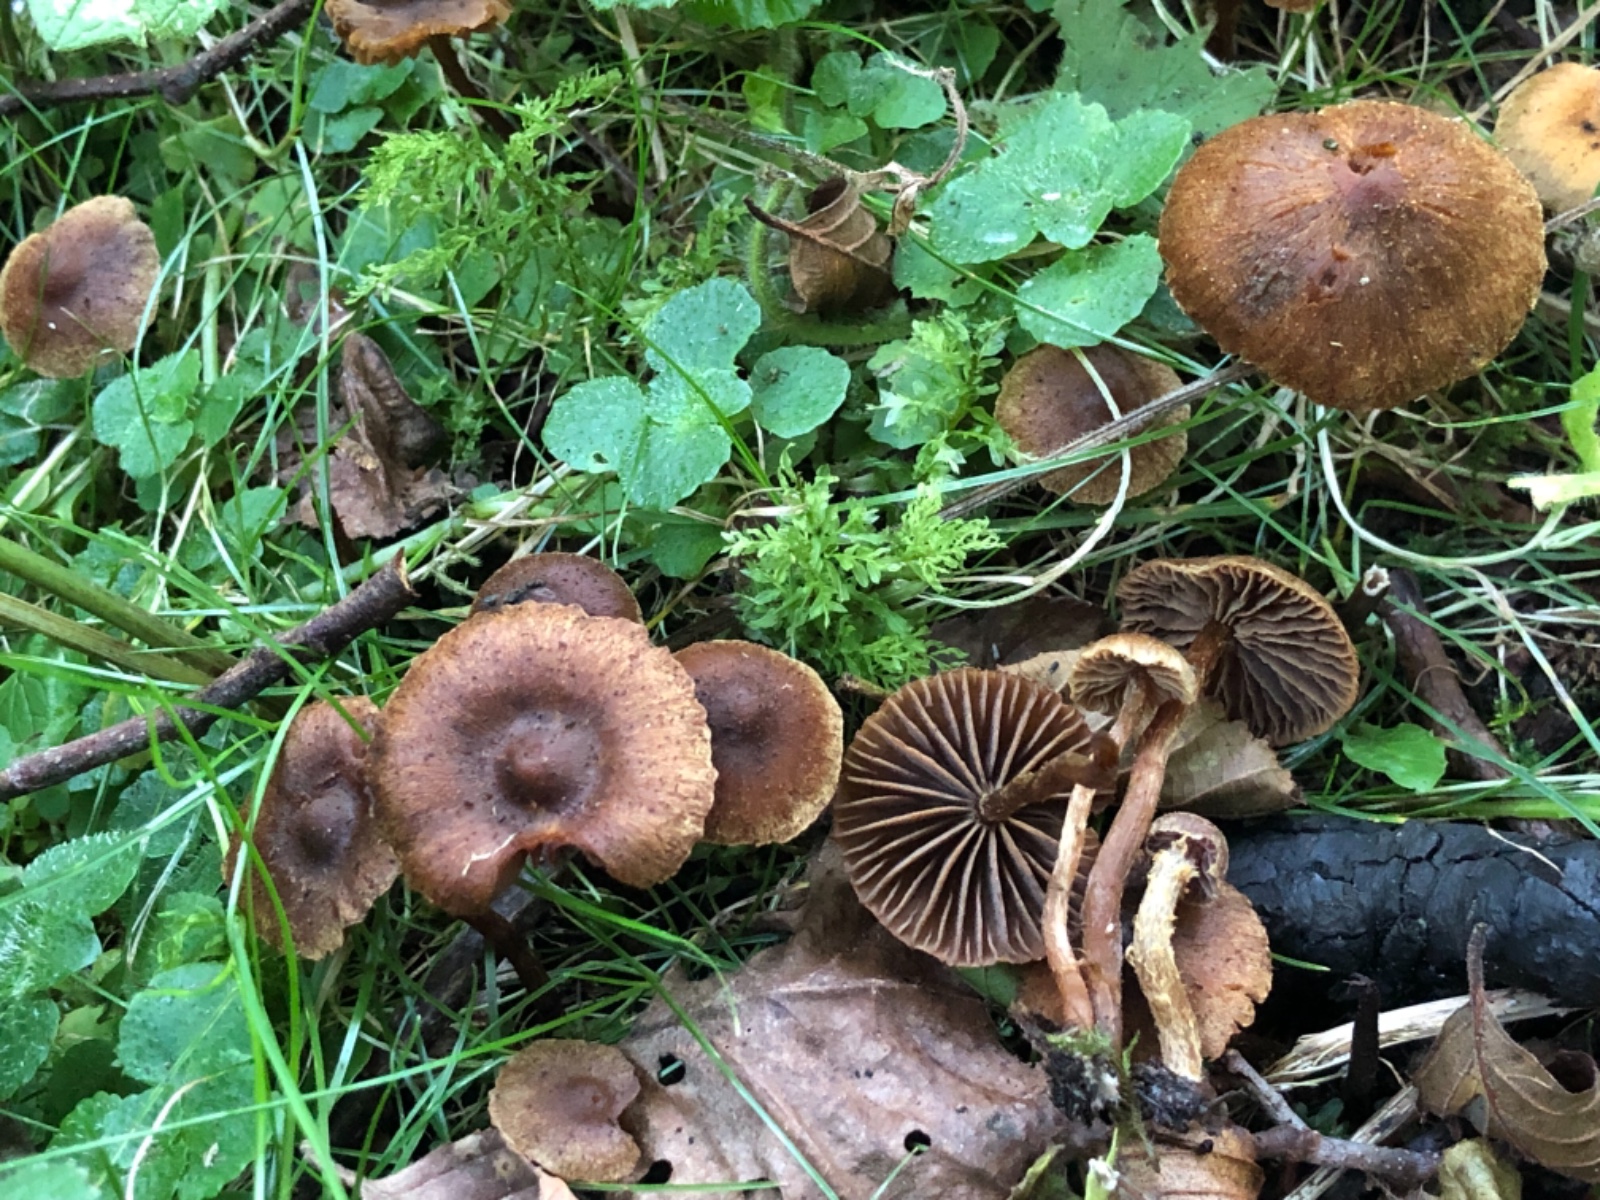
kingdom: Fungi
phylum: Basidiomycota
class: Agaricomycetes
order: Agaricales
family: Cortinariaceae
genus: Cortinarius
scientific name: Cortinarius helvelloides
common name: fjernbladet slørhat
